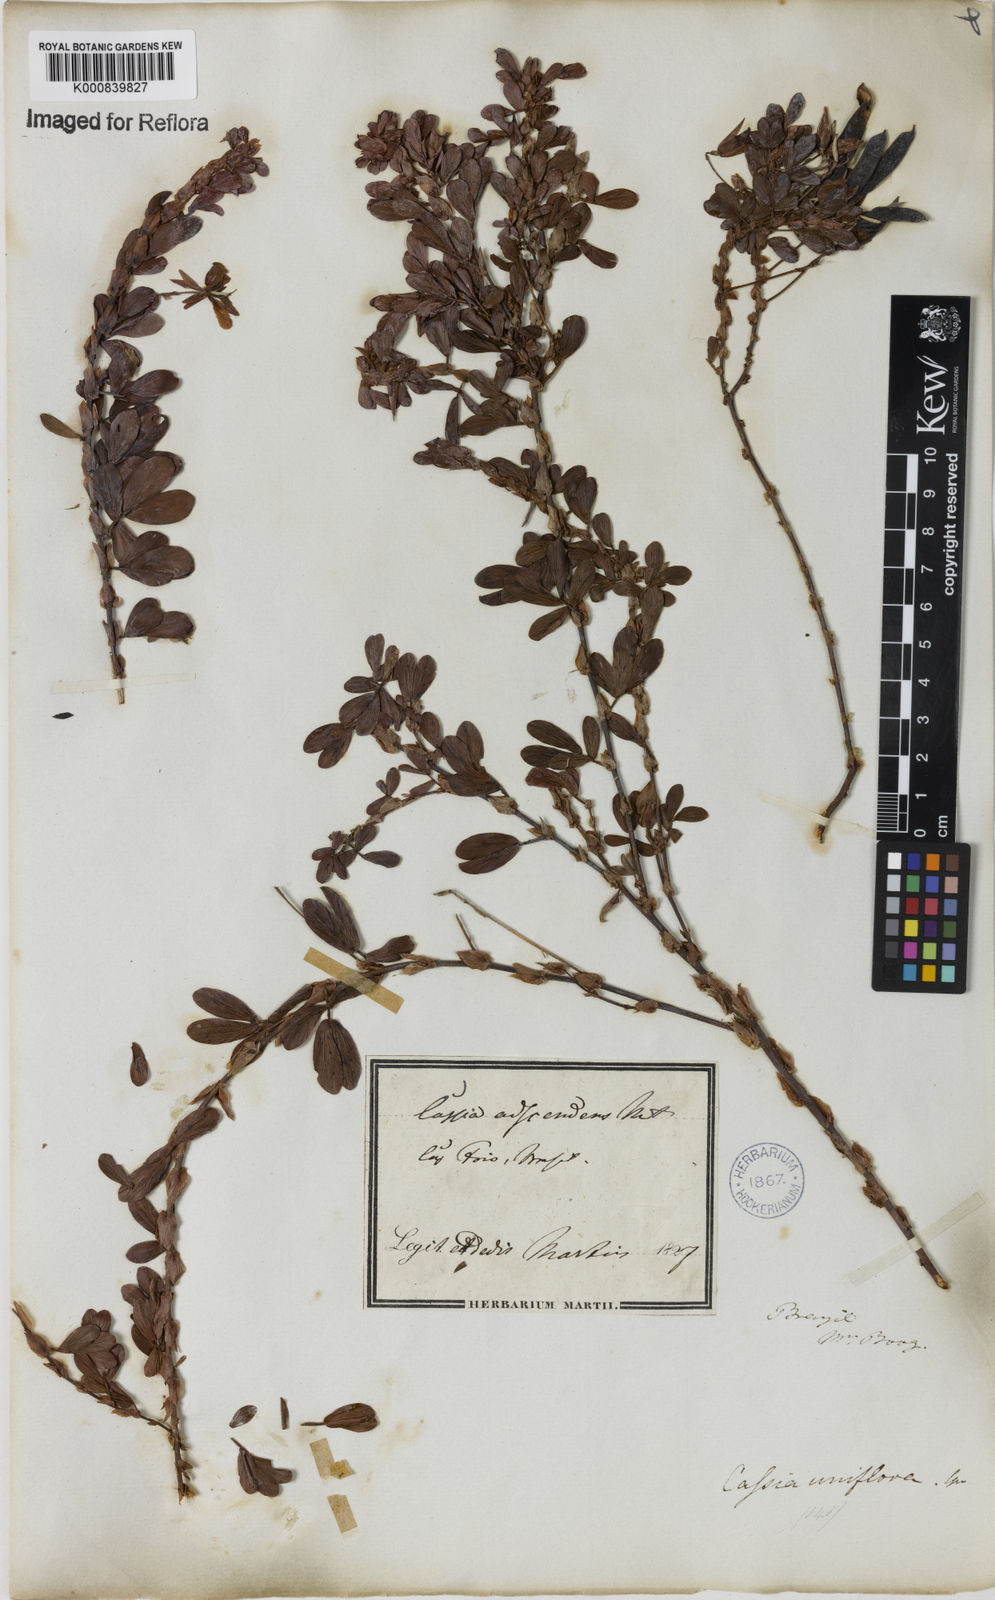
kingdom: Plantae
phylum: Tracheophyta
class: Magnoliopsida
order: Fabales
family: Fabaceae
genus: Chamaecrista
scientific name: Chamaecrista desvauxii
